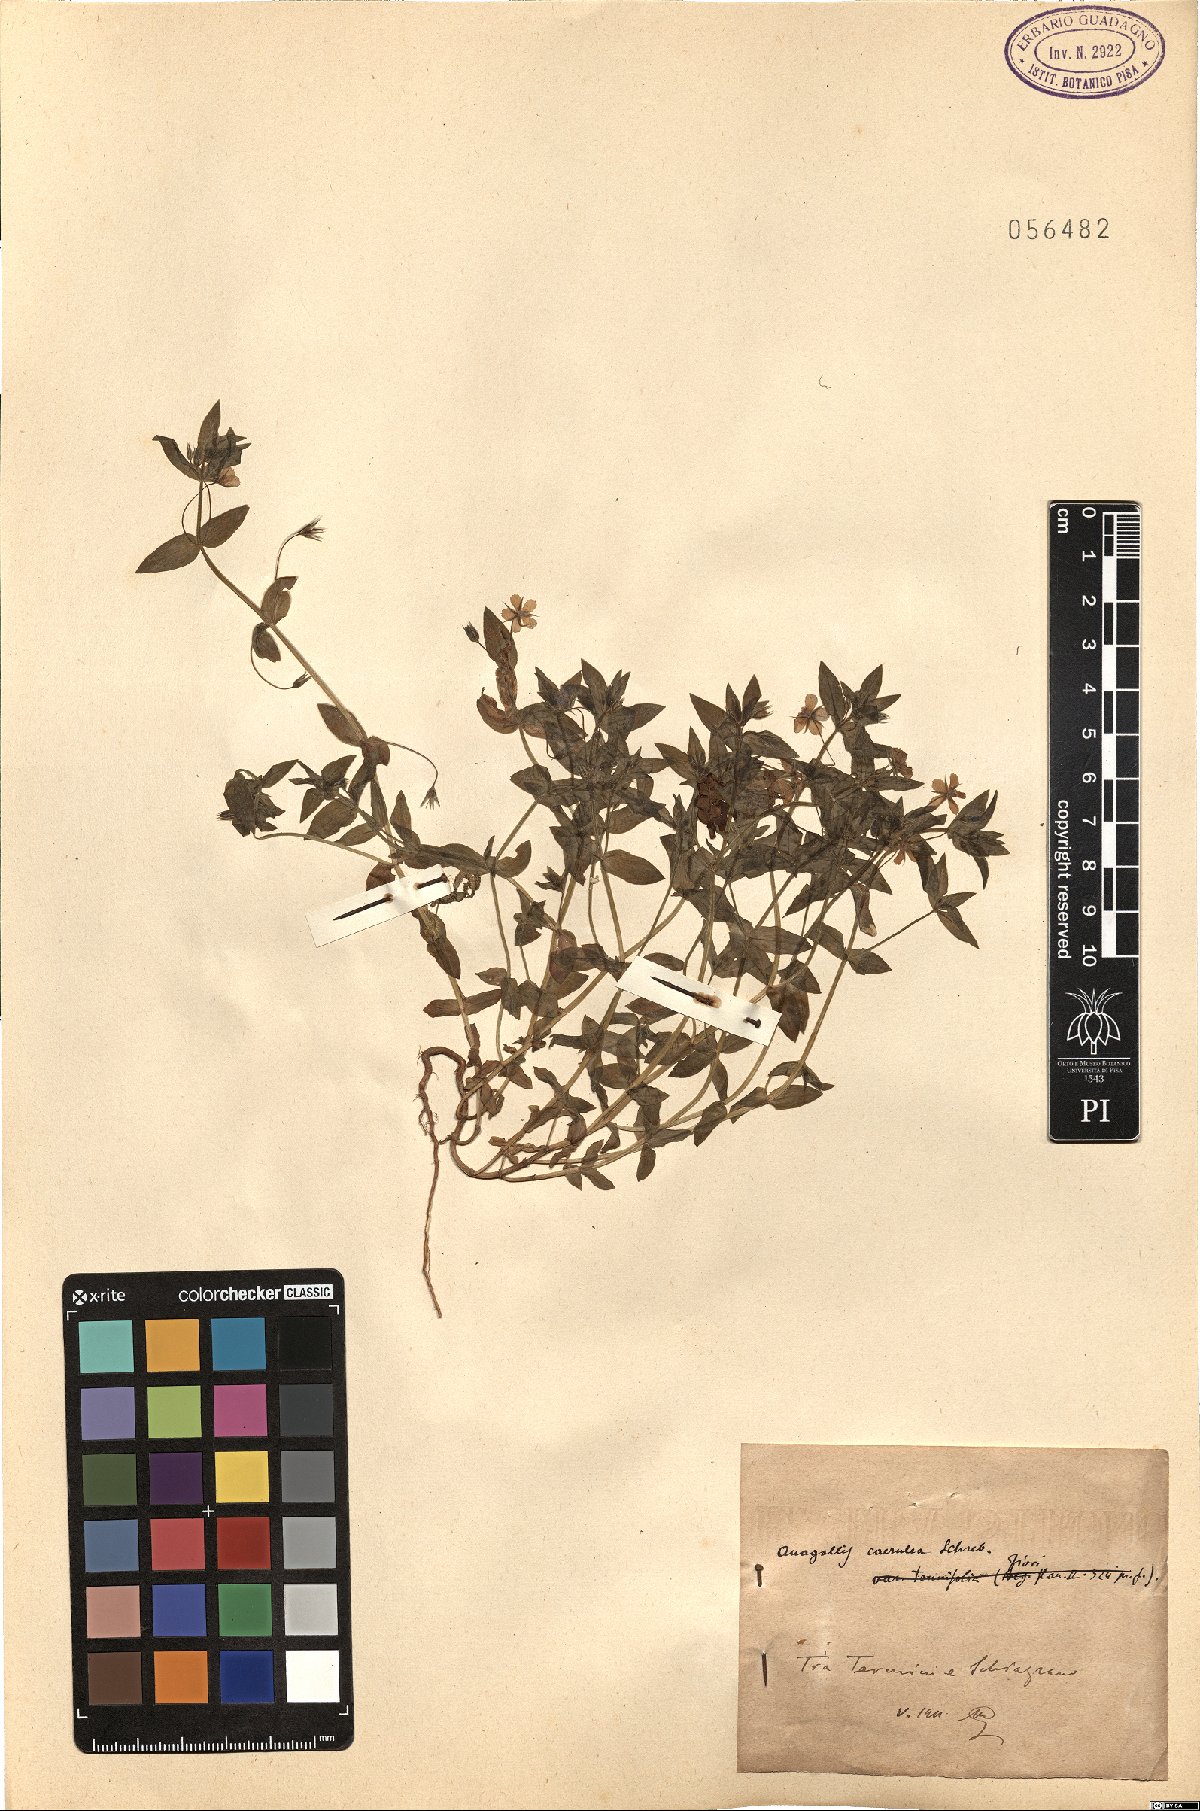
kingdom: Plantae
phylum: Tracheophyta
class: Magnoliopsida
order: Ericales
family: Primulaceae
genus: Lysimachia
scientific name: Lysimachia loeflingii
